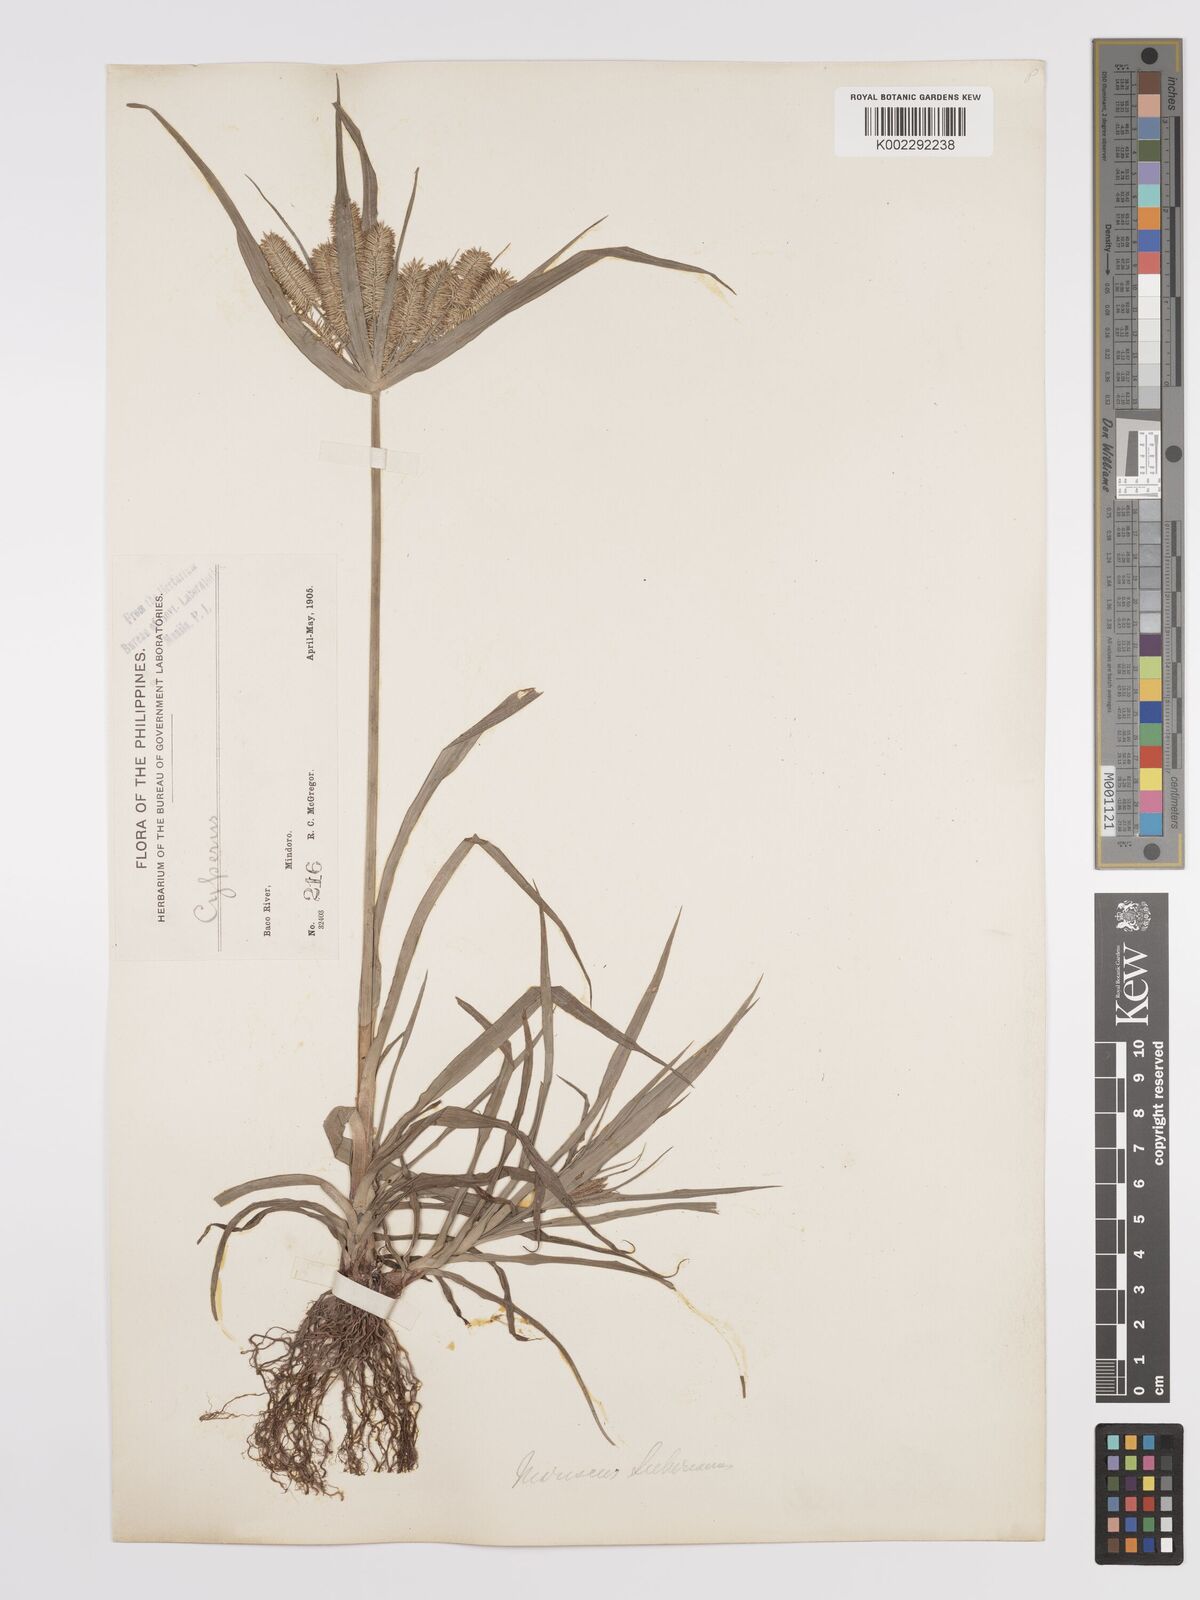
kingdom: Plantae
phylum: Tracheophyta
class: Liliopsida
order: Poales
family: Cyperaceae
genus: Cyperus
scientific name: Cyperus cyperoides
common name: Pacific island flat sedge
